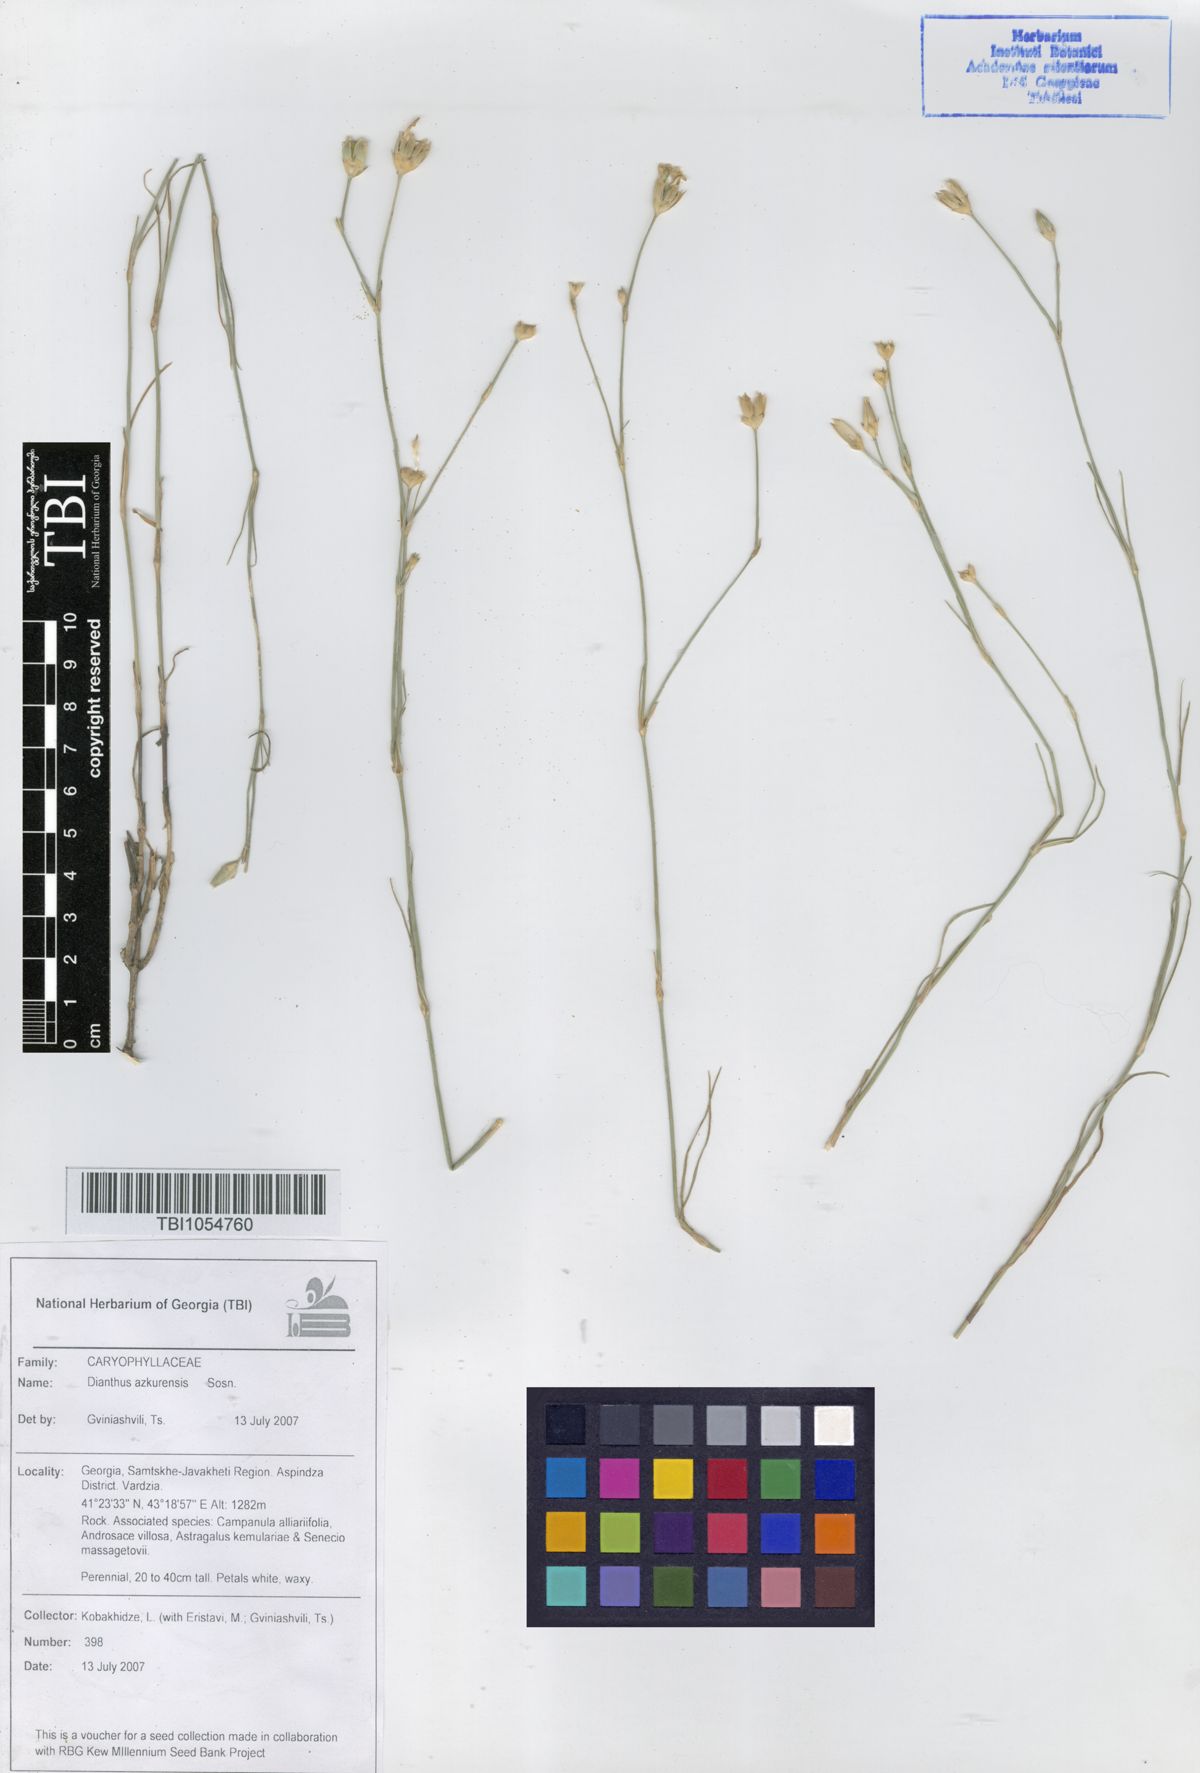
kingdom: Plantae
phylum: Tracheophyta
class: Magnoliopsida
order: Caryophyllales
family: Caryophyllaceae
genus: Dianthus
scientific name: Dianthus
